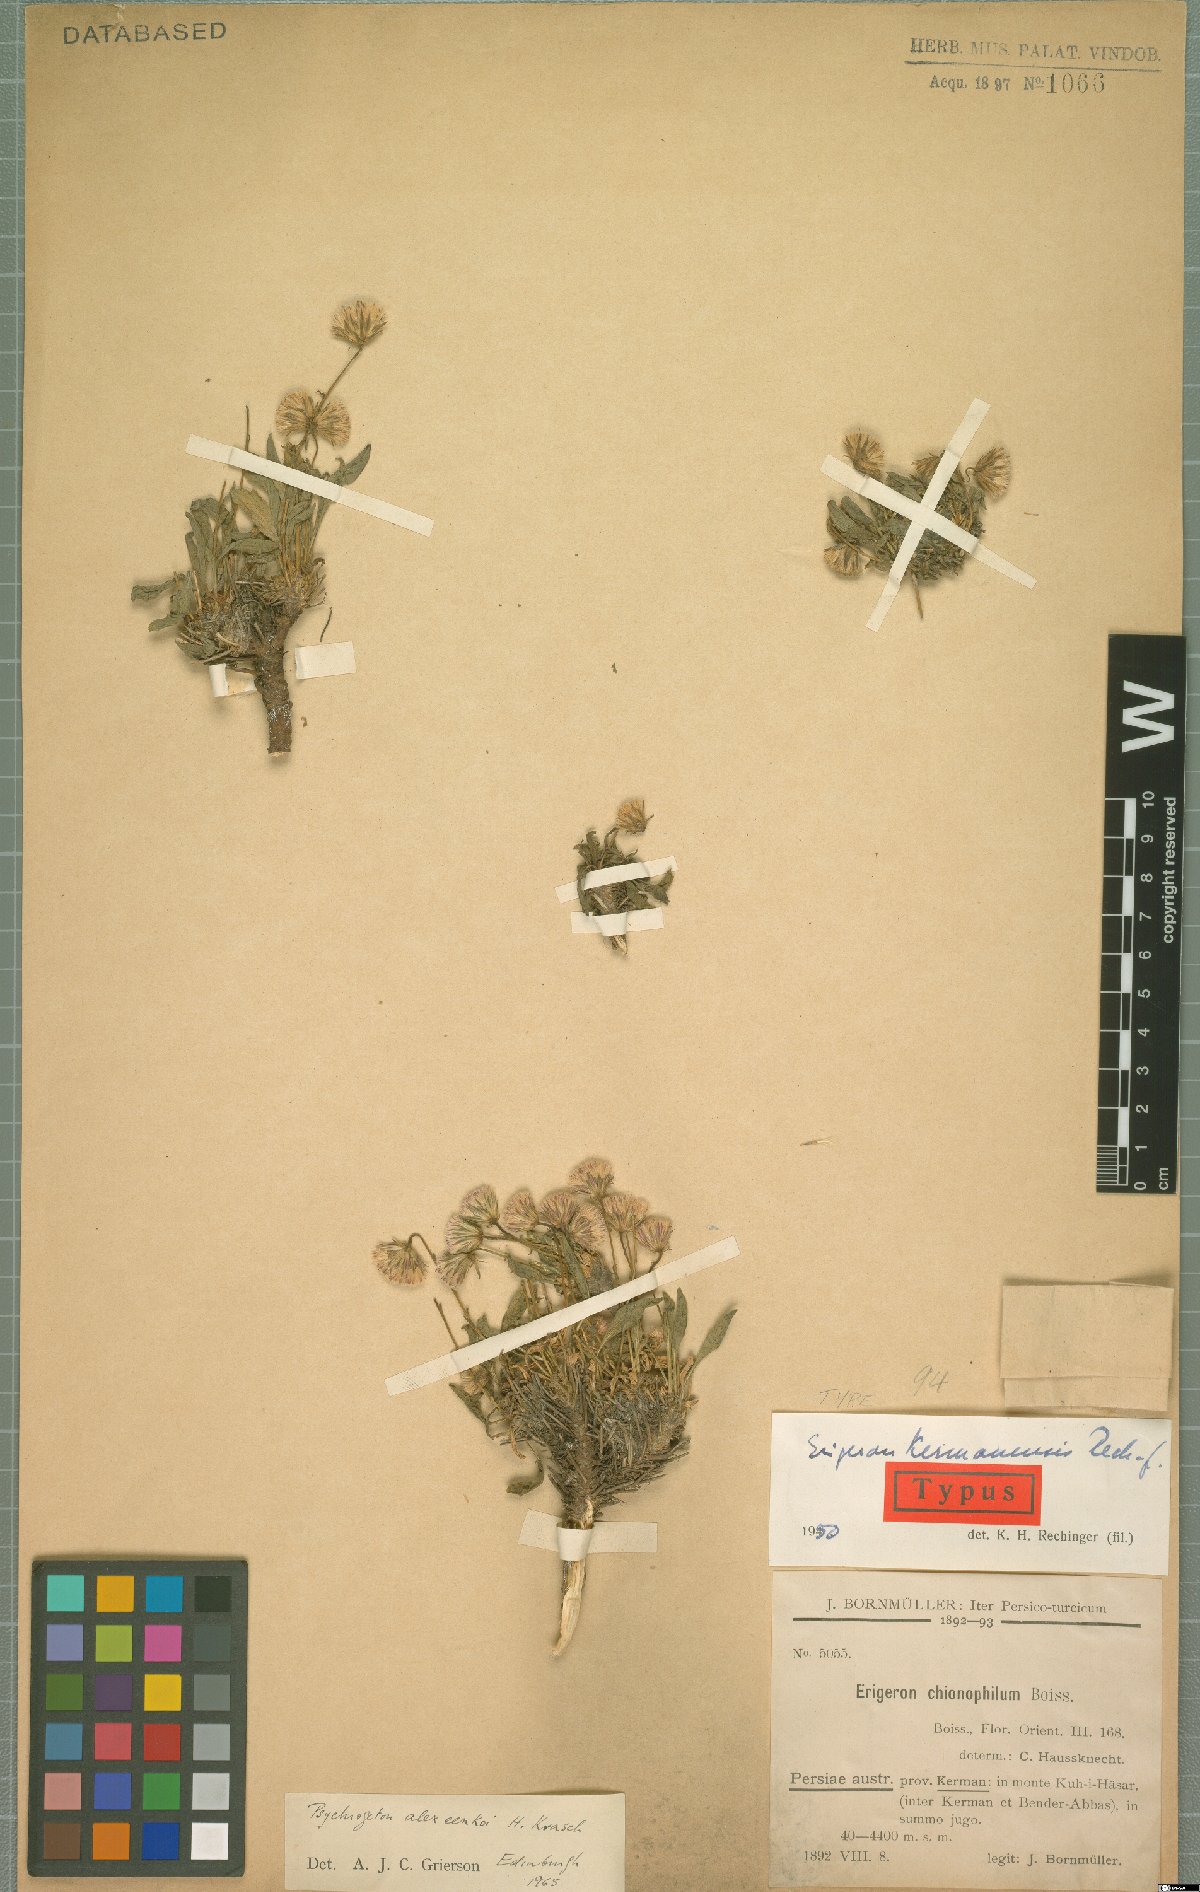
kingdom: Plantae
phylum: Tracheophyta
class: Magnoliopsida
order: Asterales
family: Asteraceae
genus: Psychrogeton
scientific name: Psychrogeton alexeenkoi
